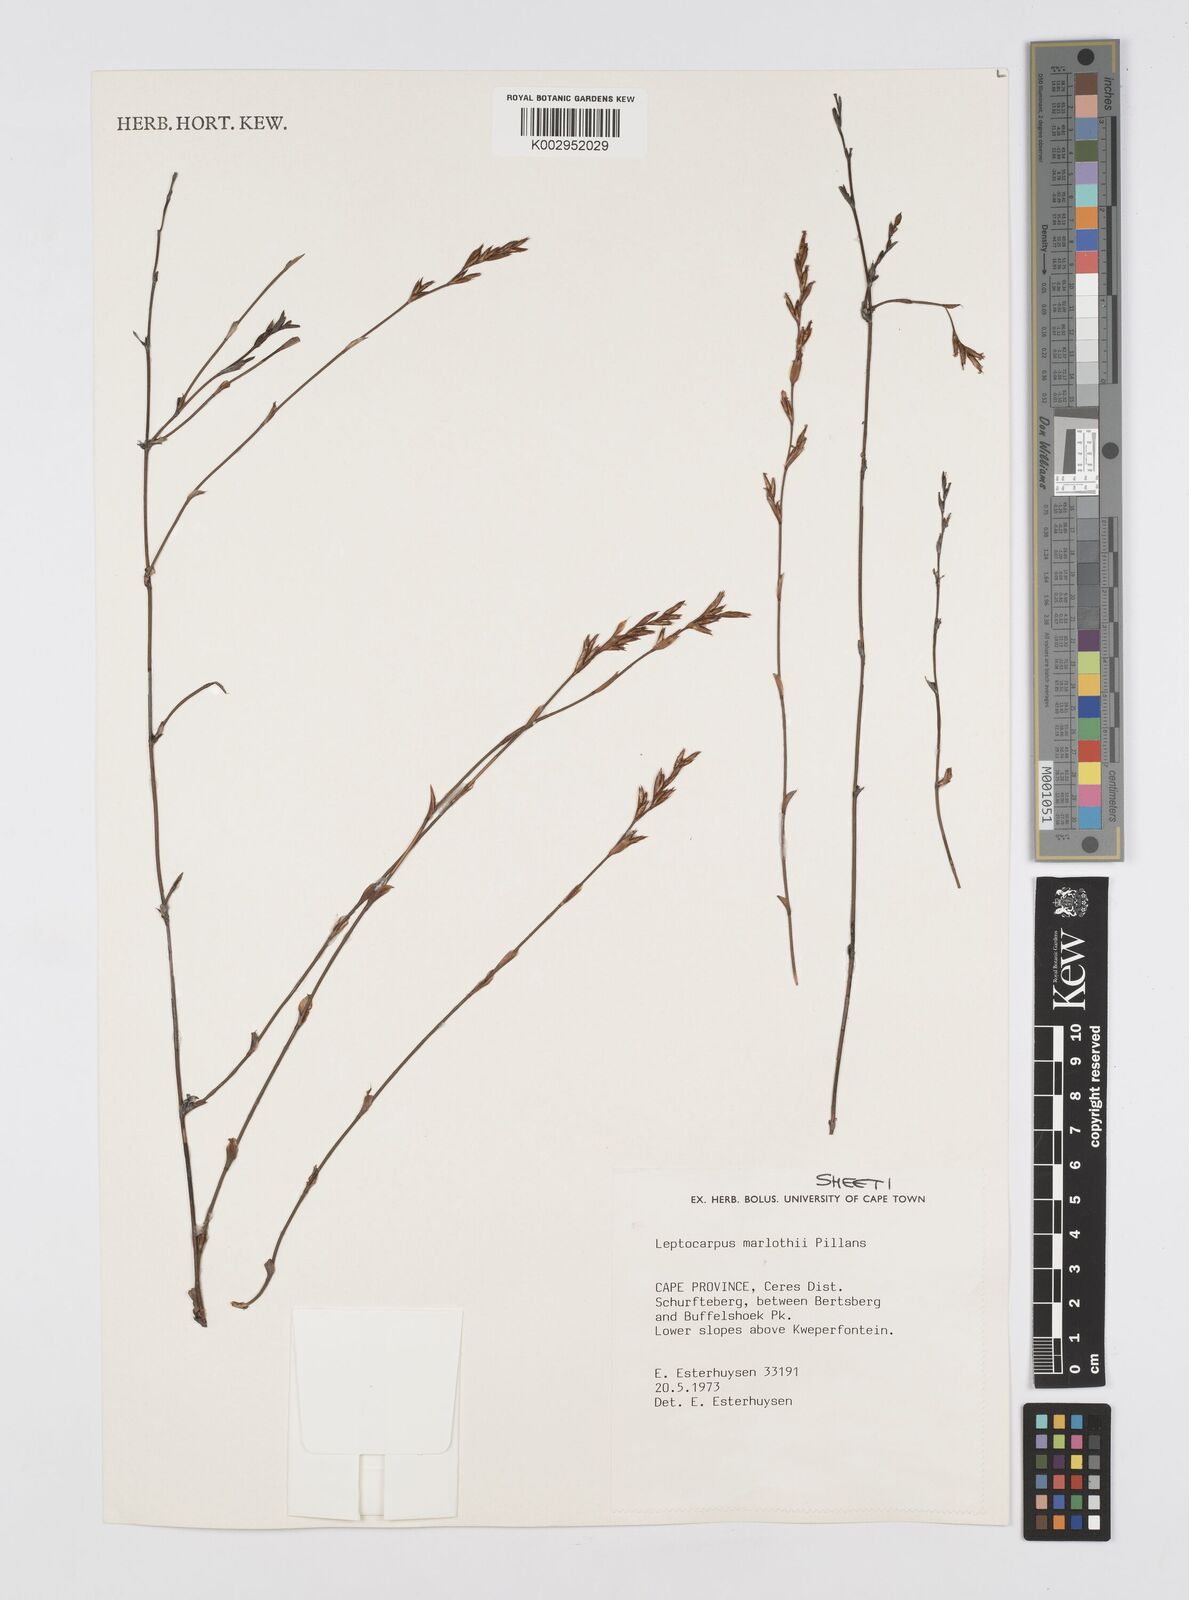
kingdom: Plantae
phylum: Tracheophyta
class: Liliopsida
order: Poales
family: Restionaceae
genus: Restio
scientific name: Restio marlothii
